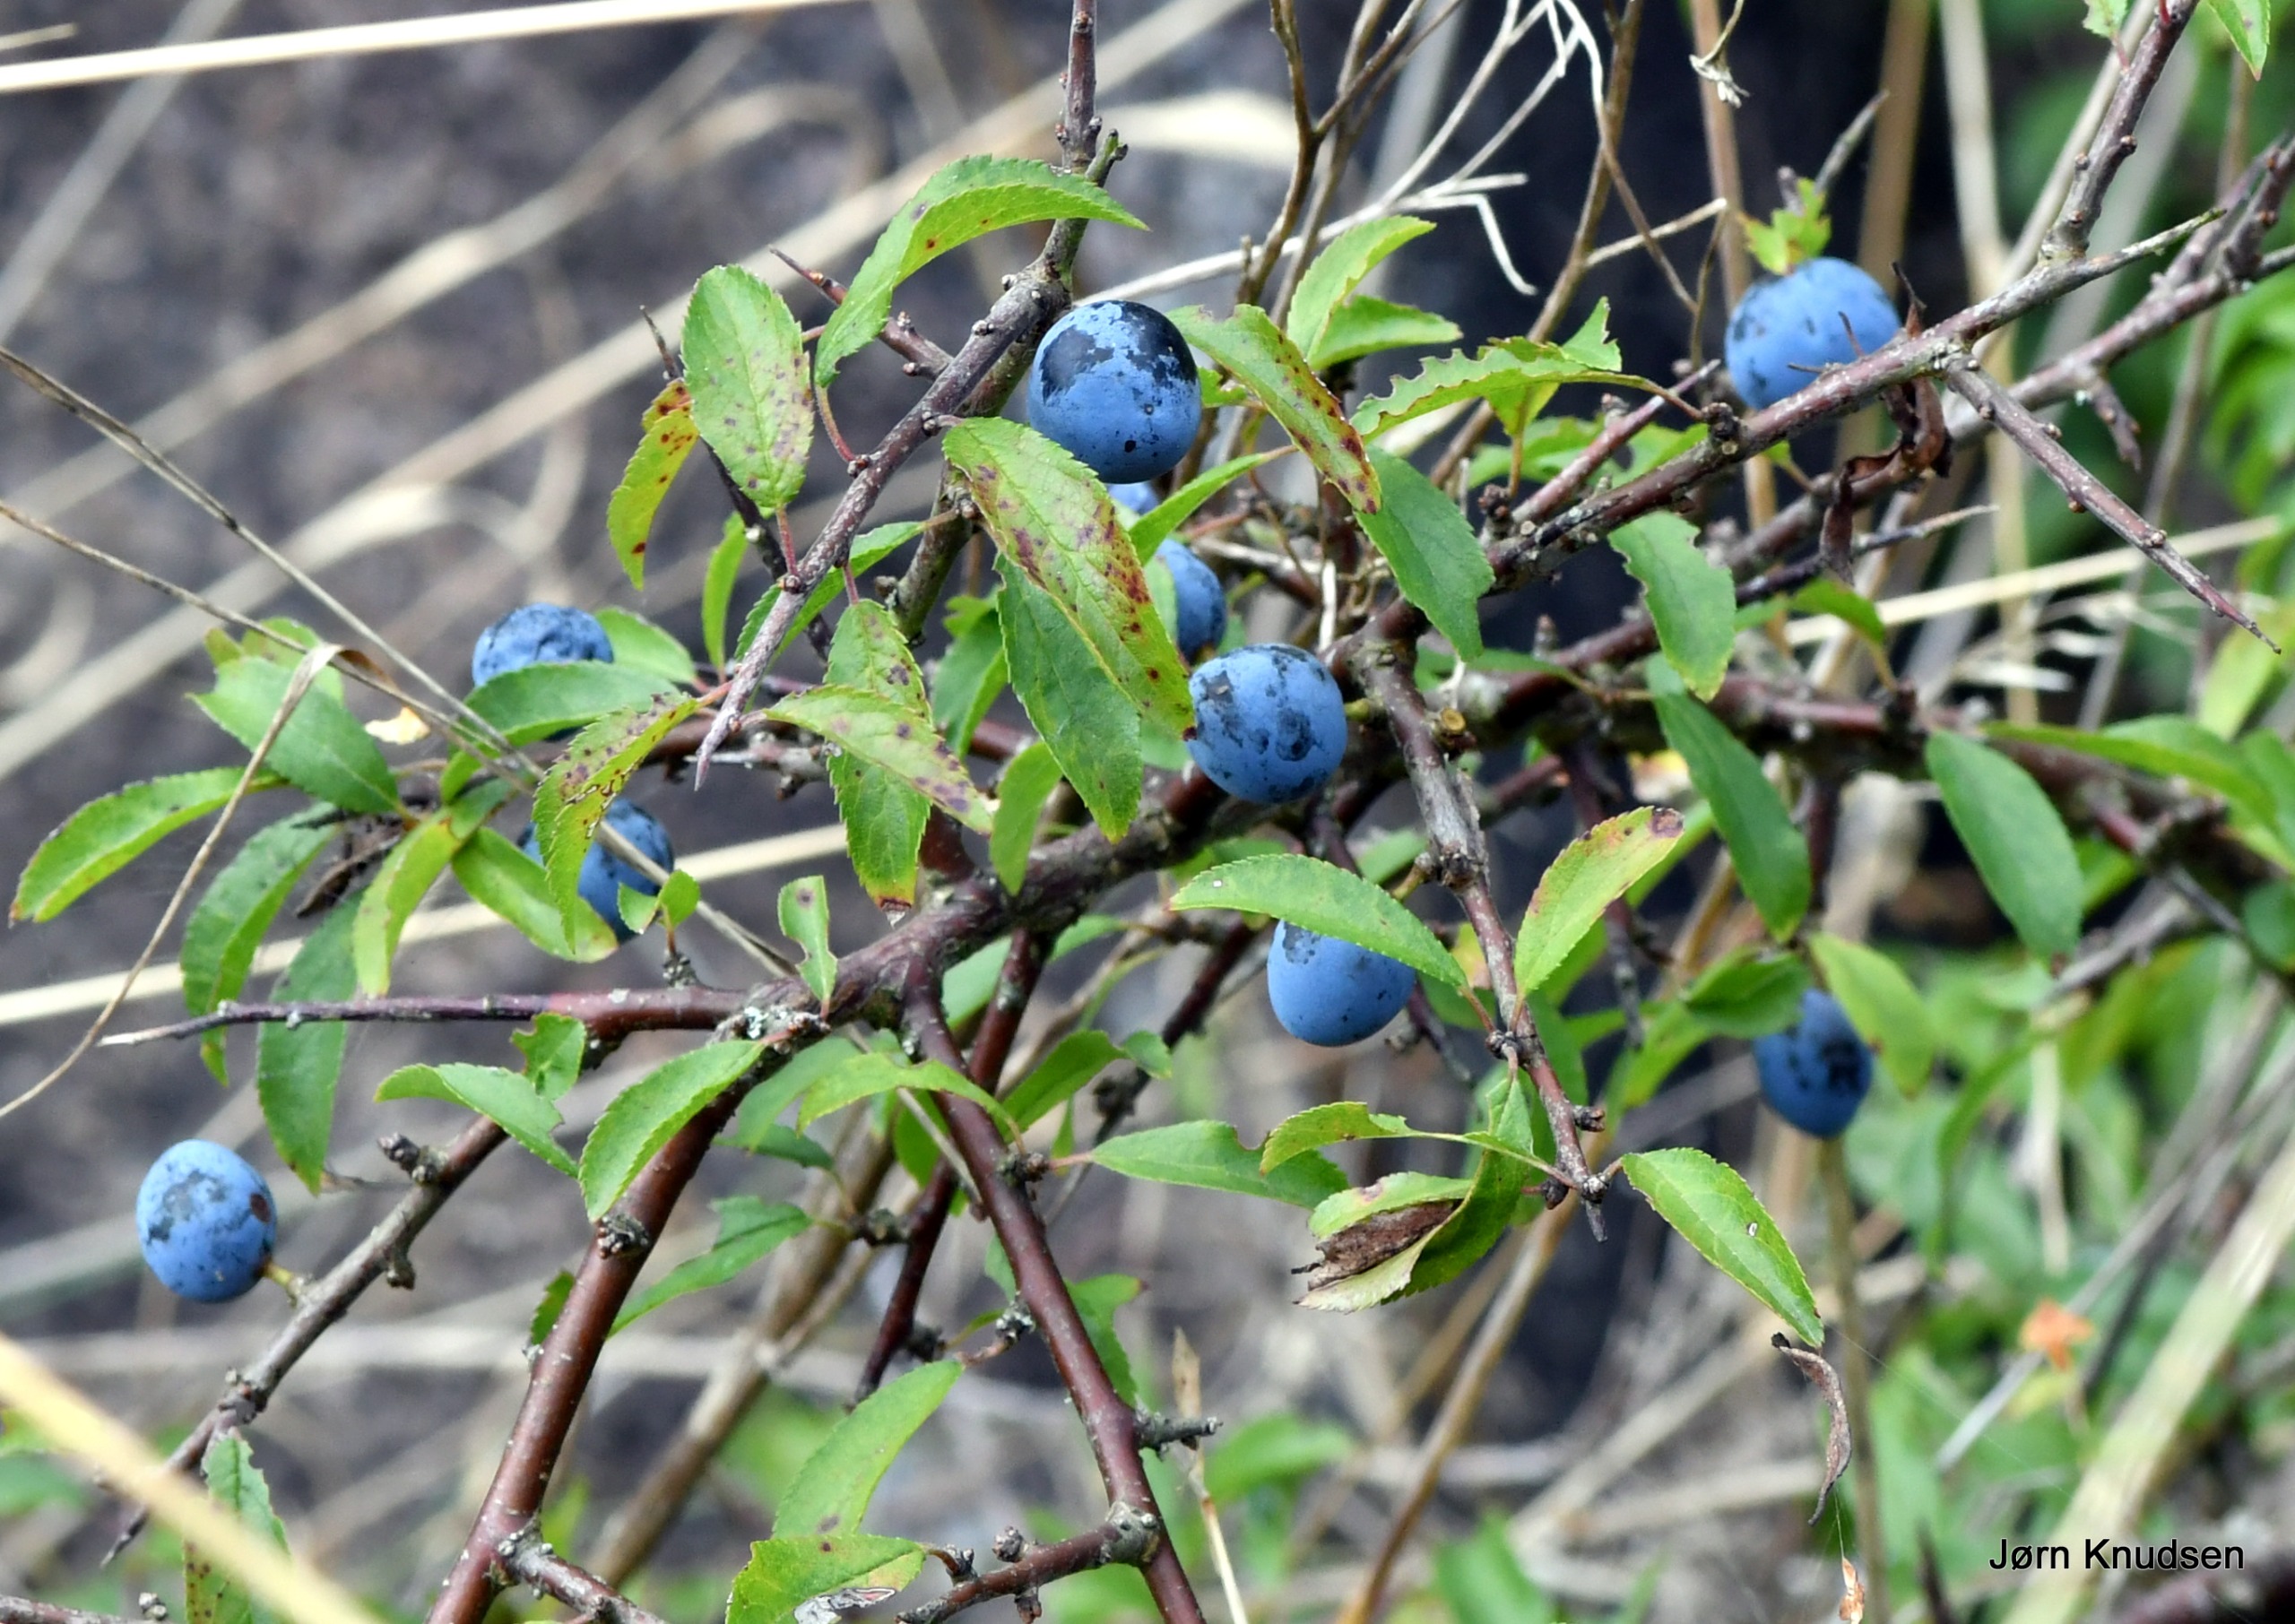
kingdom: Plantae
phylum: Tracheophyta
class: Magnoliopsida
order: Rosales
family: Rosaceae
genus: Prunus
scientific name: Prunus spinosa
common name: Slåen
